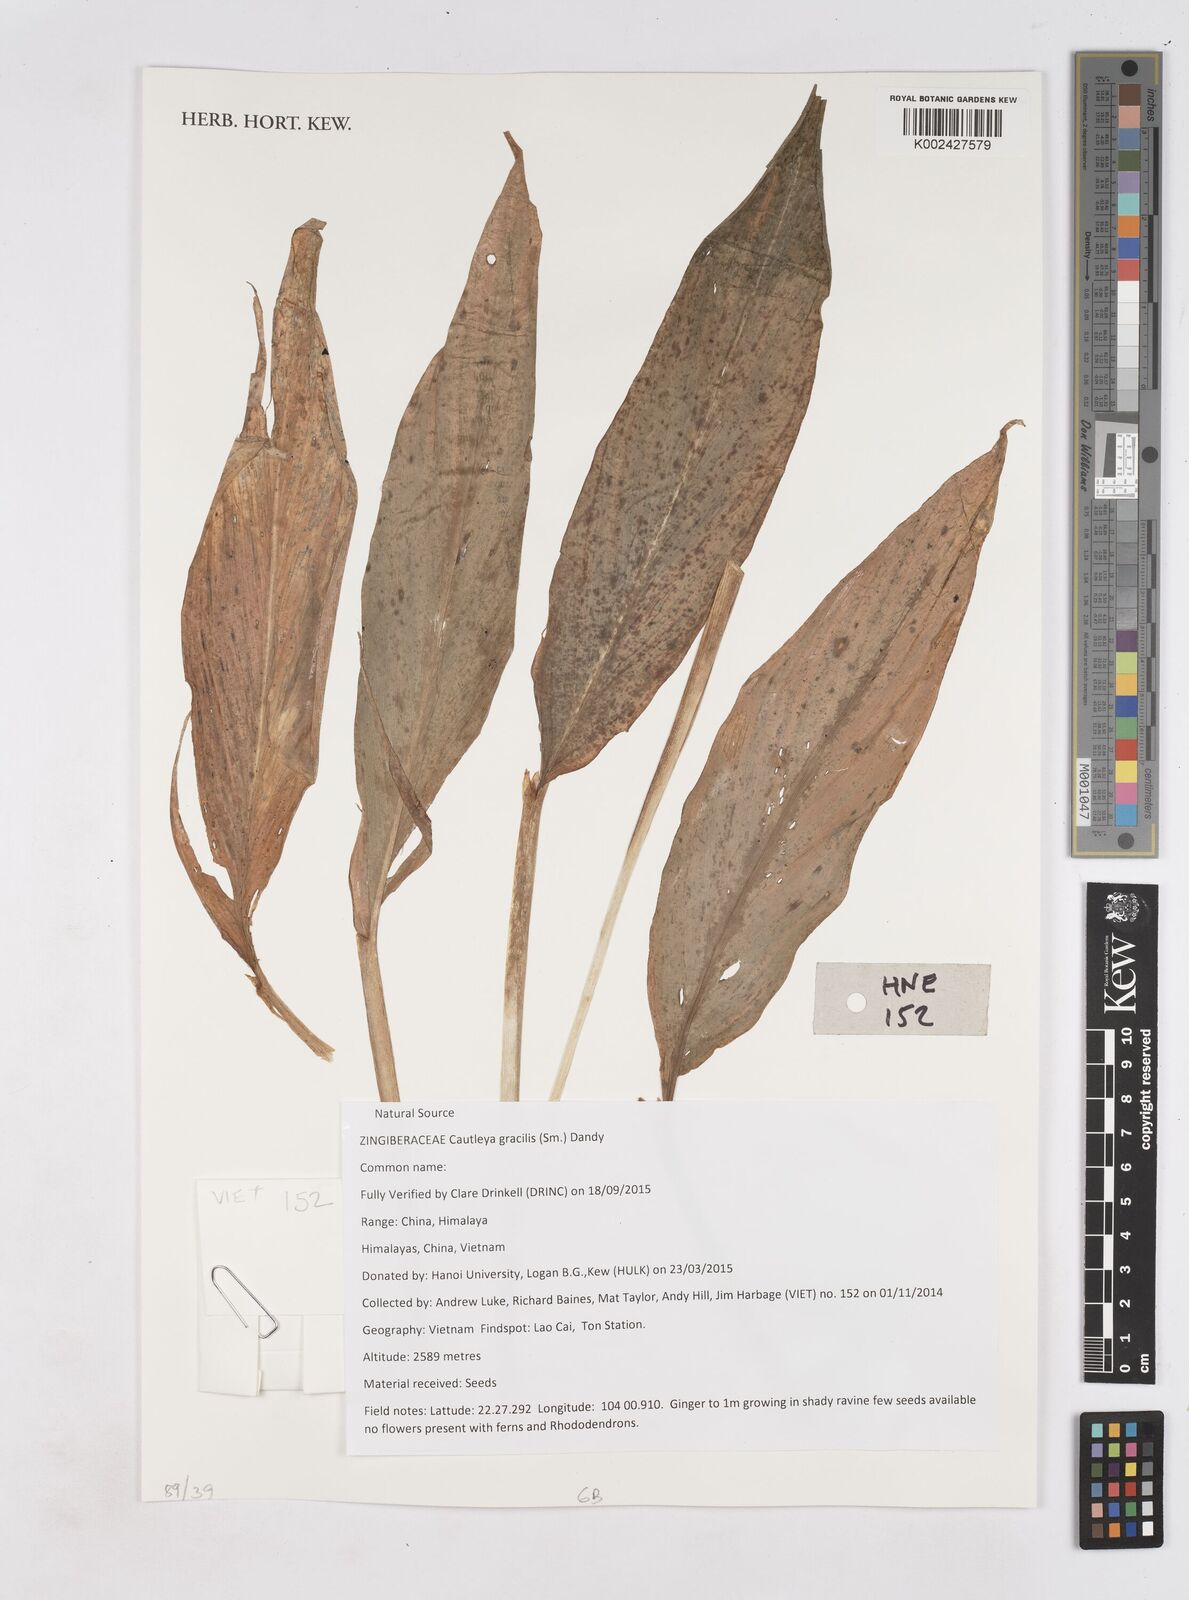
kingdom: Plantae
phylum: Tracheophyta
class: Liliopsida
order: Zingiberales
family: Zingiberaceae
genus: Cautleya
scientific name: Cautleya gracilis
